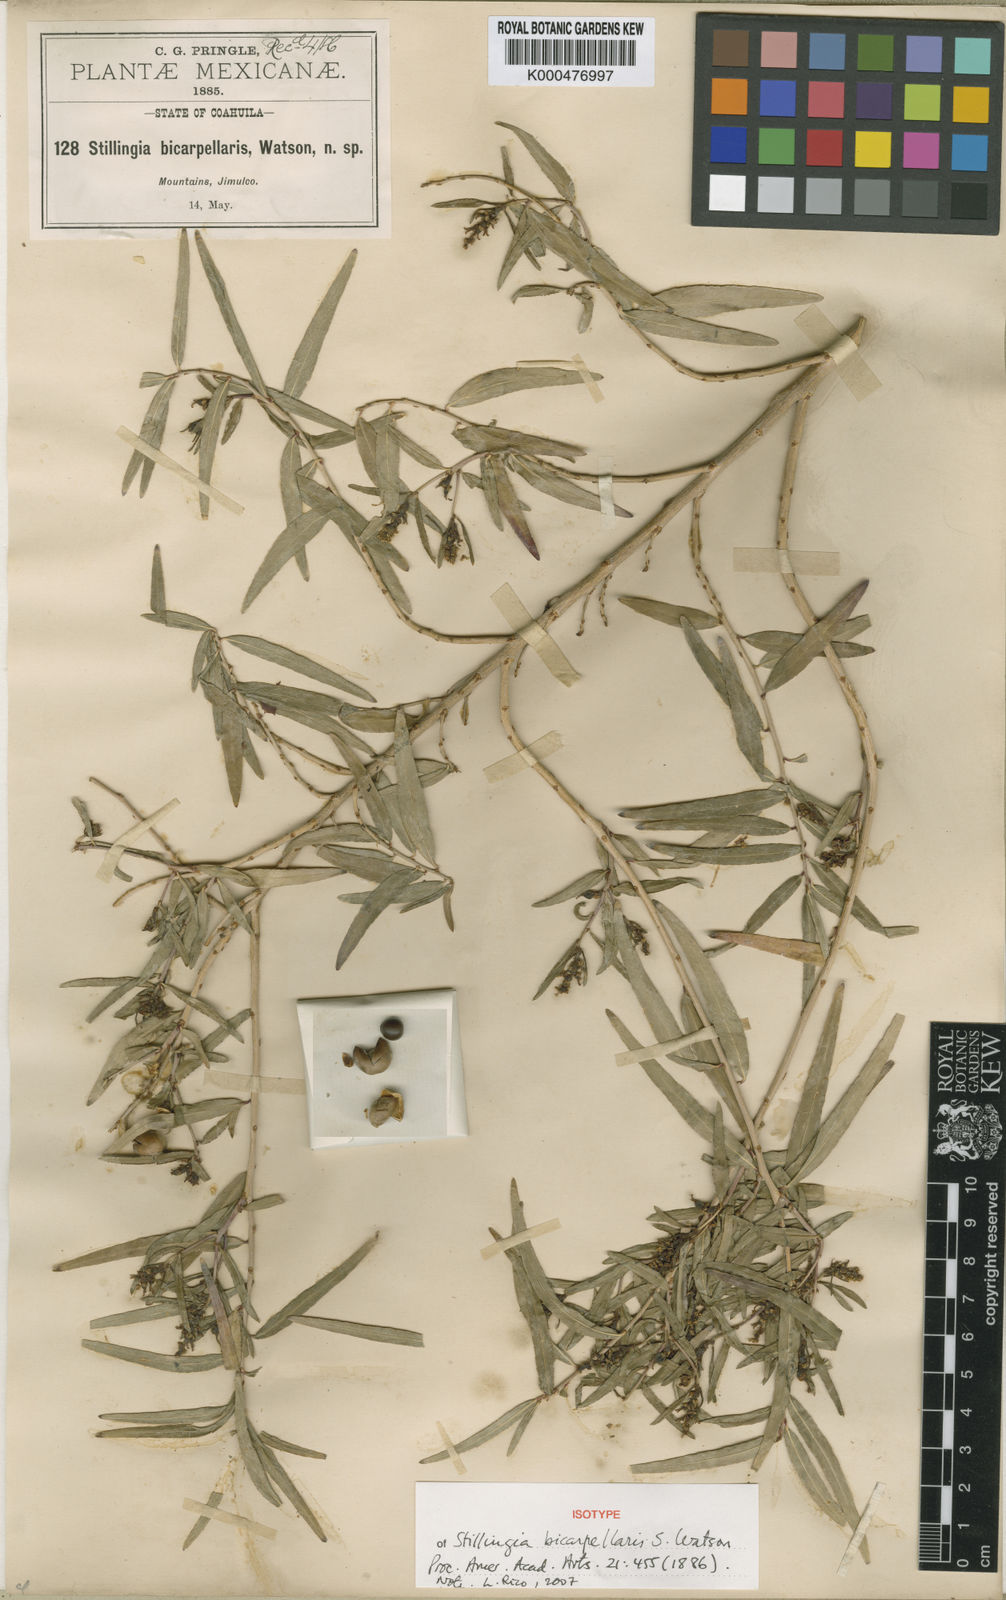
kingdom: Plantae
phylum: Tracheophyta
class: Magnoliopsida
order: Malpighiales
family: Euphorbiaceae
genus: Stillingia
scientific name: Stillingia bicarpellaris
